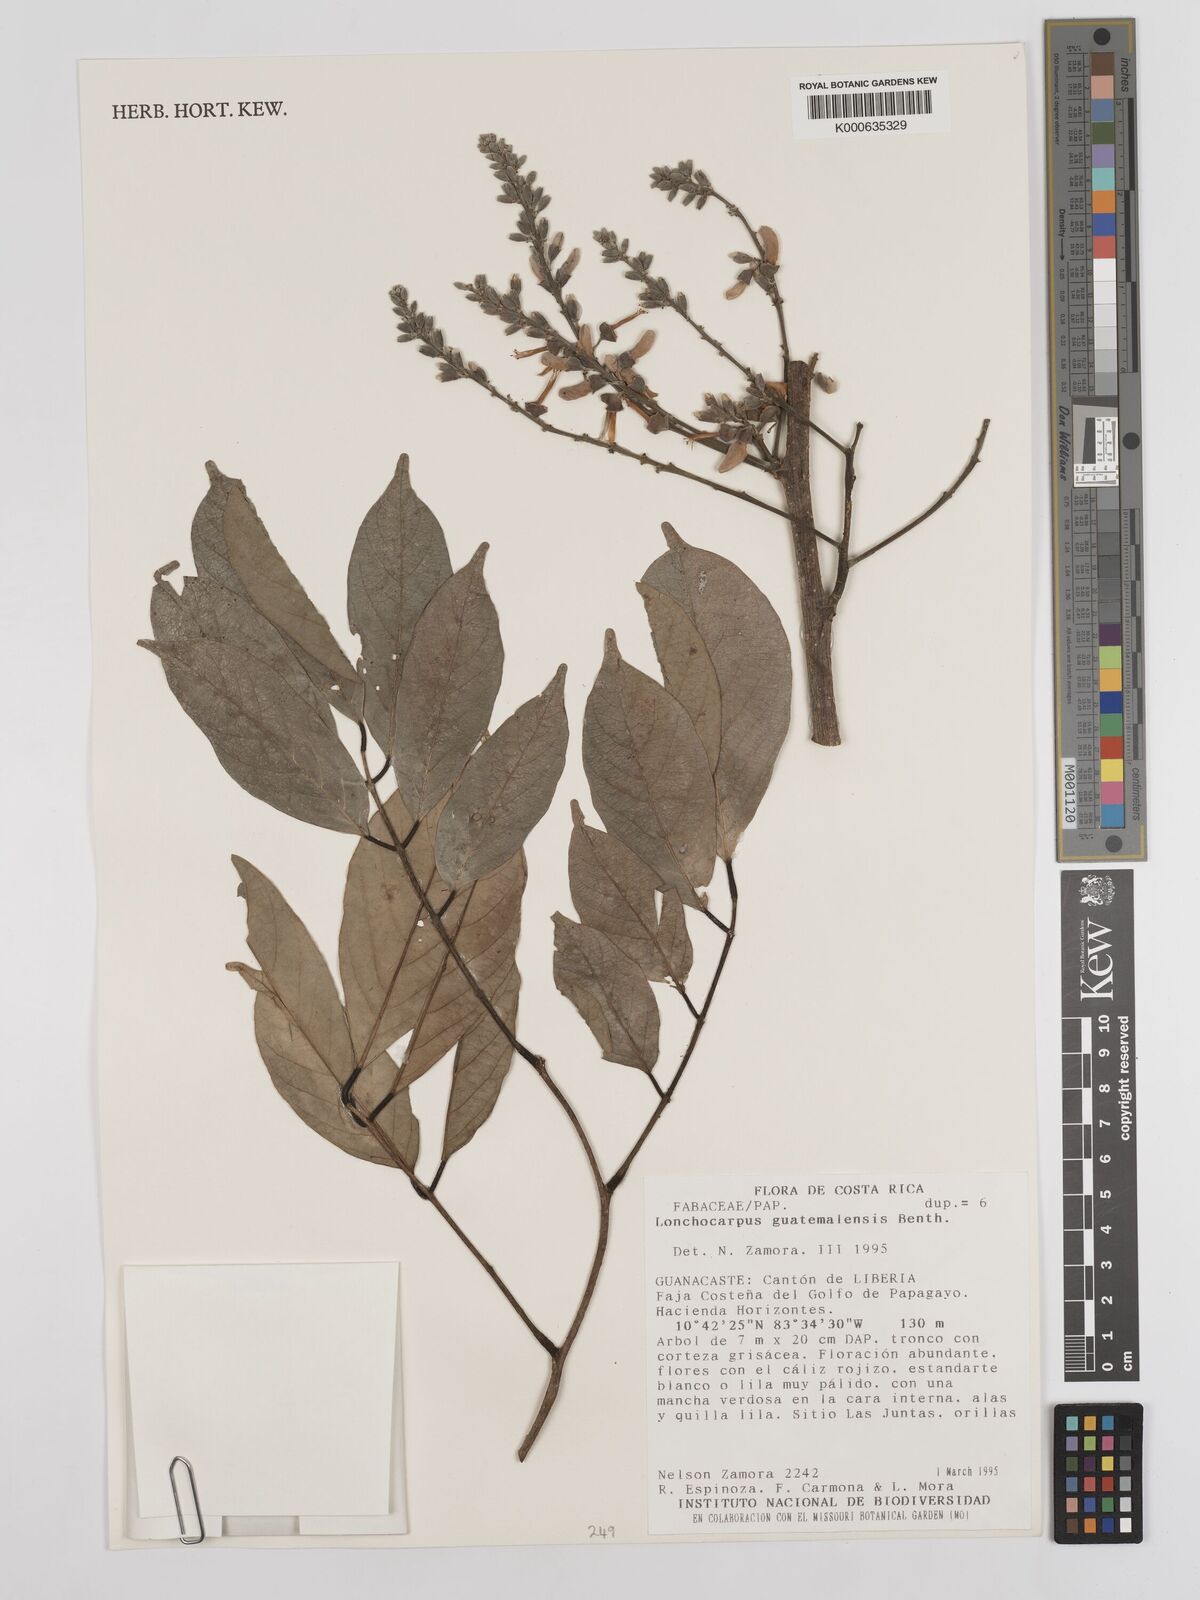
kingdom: Plantae
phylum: Tracheophyta
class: Magnoliopsida
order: Fabales
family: Fabaceae
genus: Lonchocarpus
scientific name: Lonchocarpus guatemalensis
